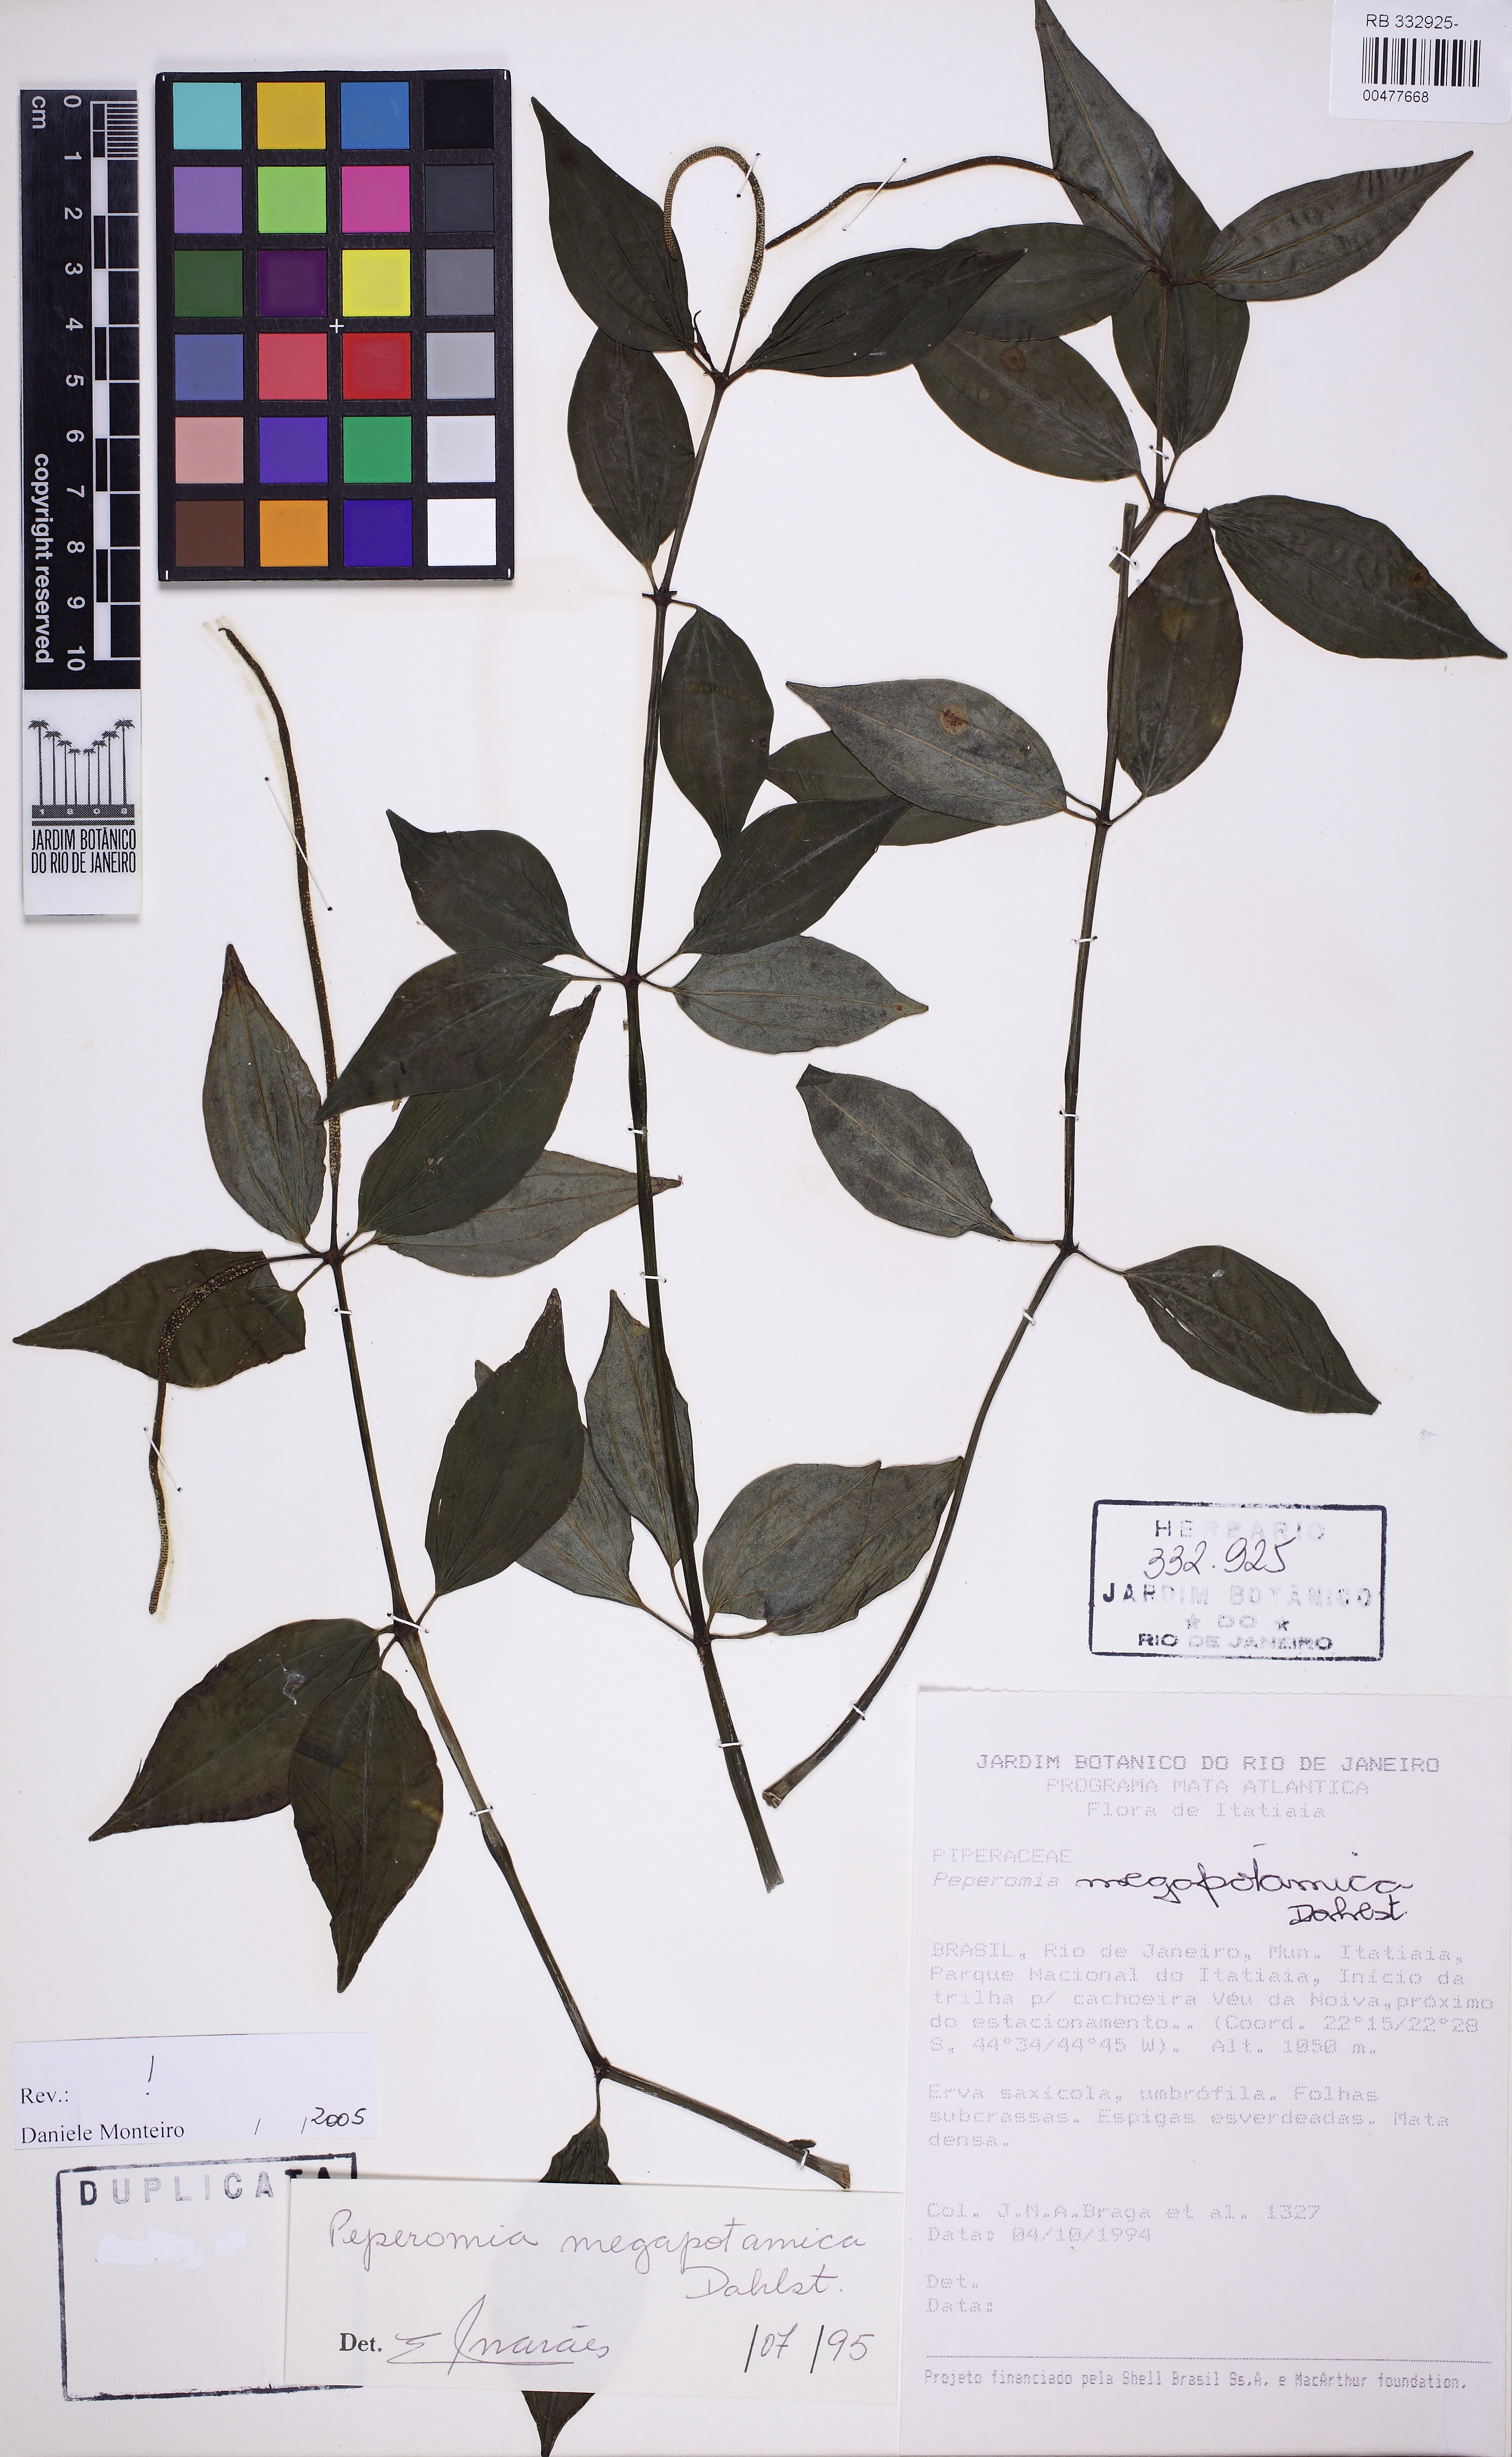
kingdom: Plantae
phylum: Tracheophyta
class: Magnoliopsida
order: Piperales
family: Piperaceae
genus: Peperomia
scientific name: Peperomia megapotamica
